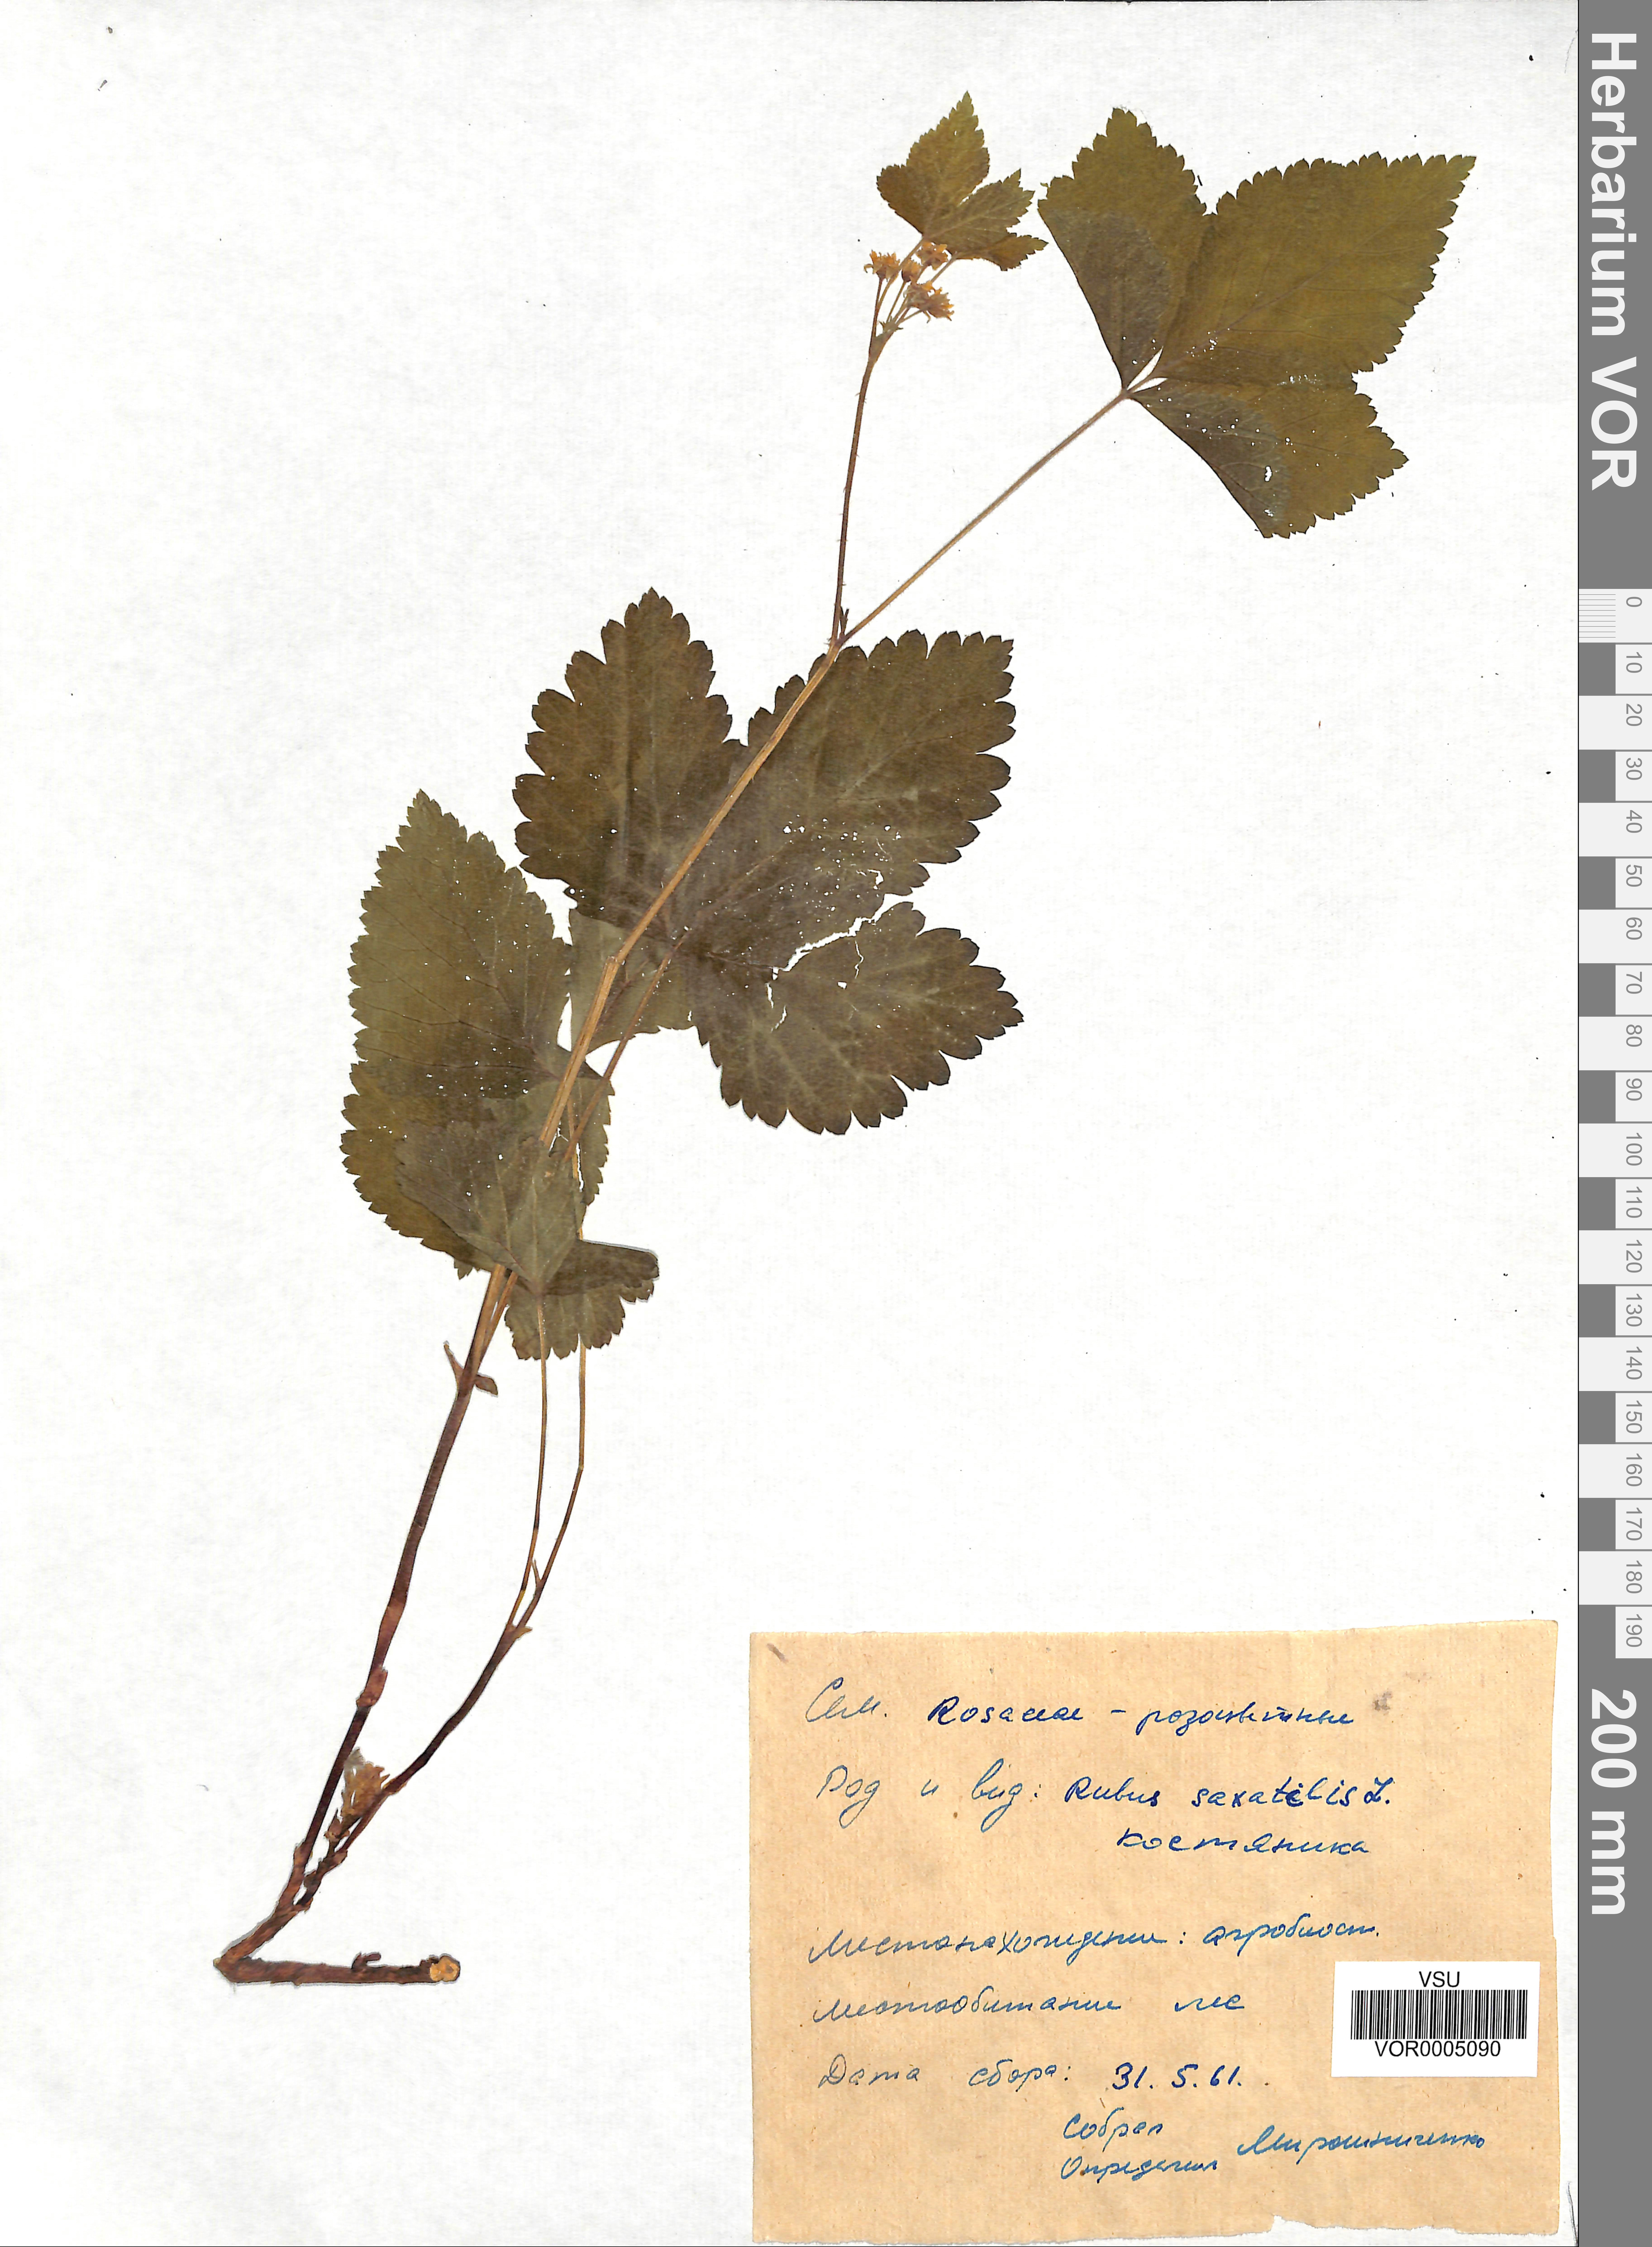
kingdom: Plantae
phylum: Tracheophyta
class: Magnoliopsida
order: Rosales
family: Rosaceae
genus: Rubus
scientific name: Rubus saxatilis
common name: Stone bramble
